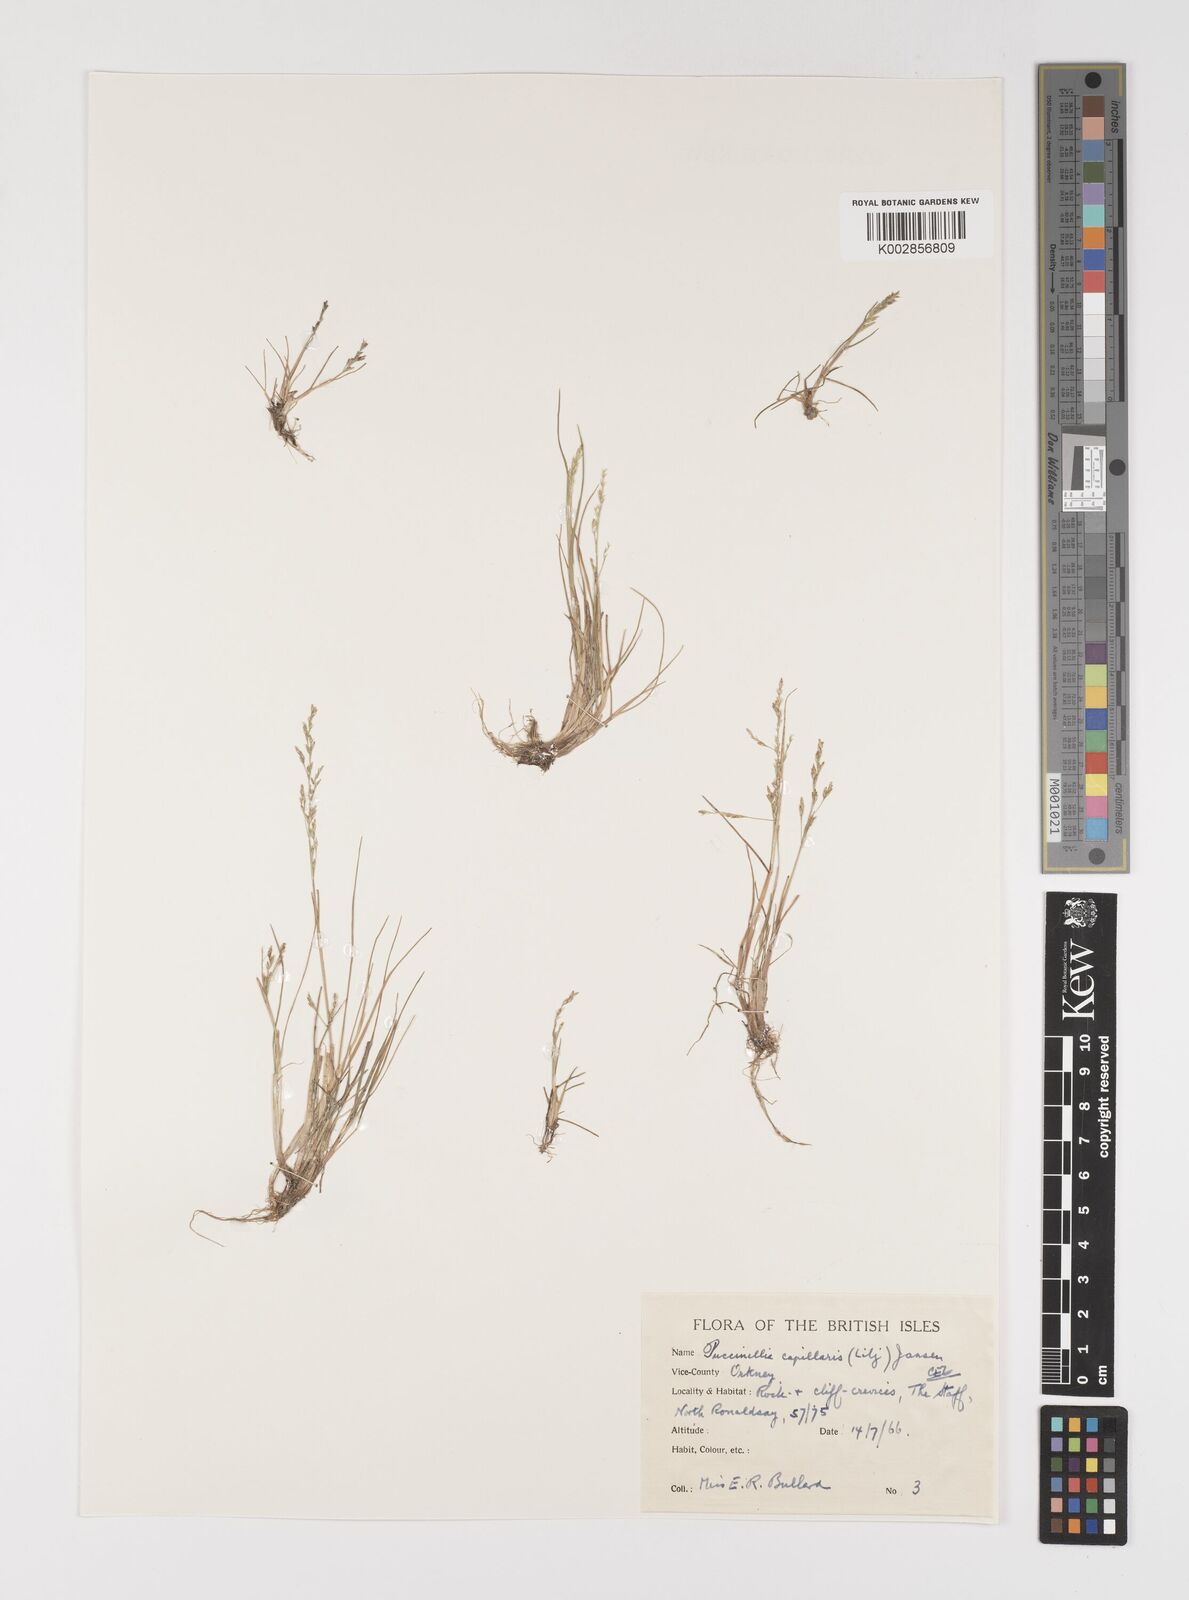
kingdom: Plantae
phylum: Tracheophyta
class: Liliopsida
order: Poales
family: Poaceae
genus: Puccinellia
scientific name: Puccinellia distans
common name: Weeping alkaligrass
